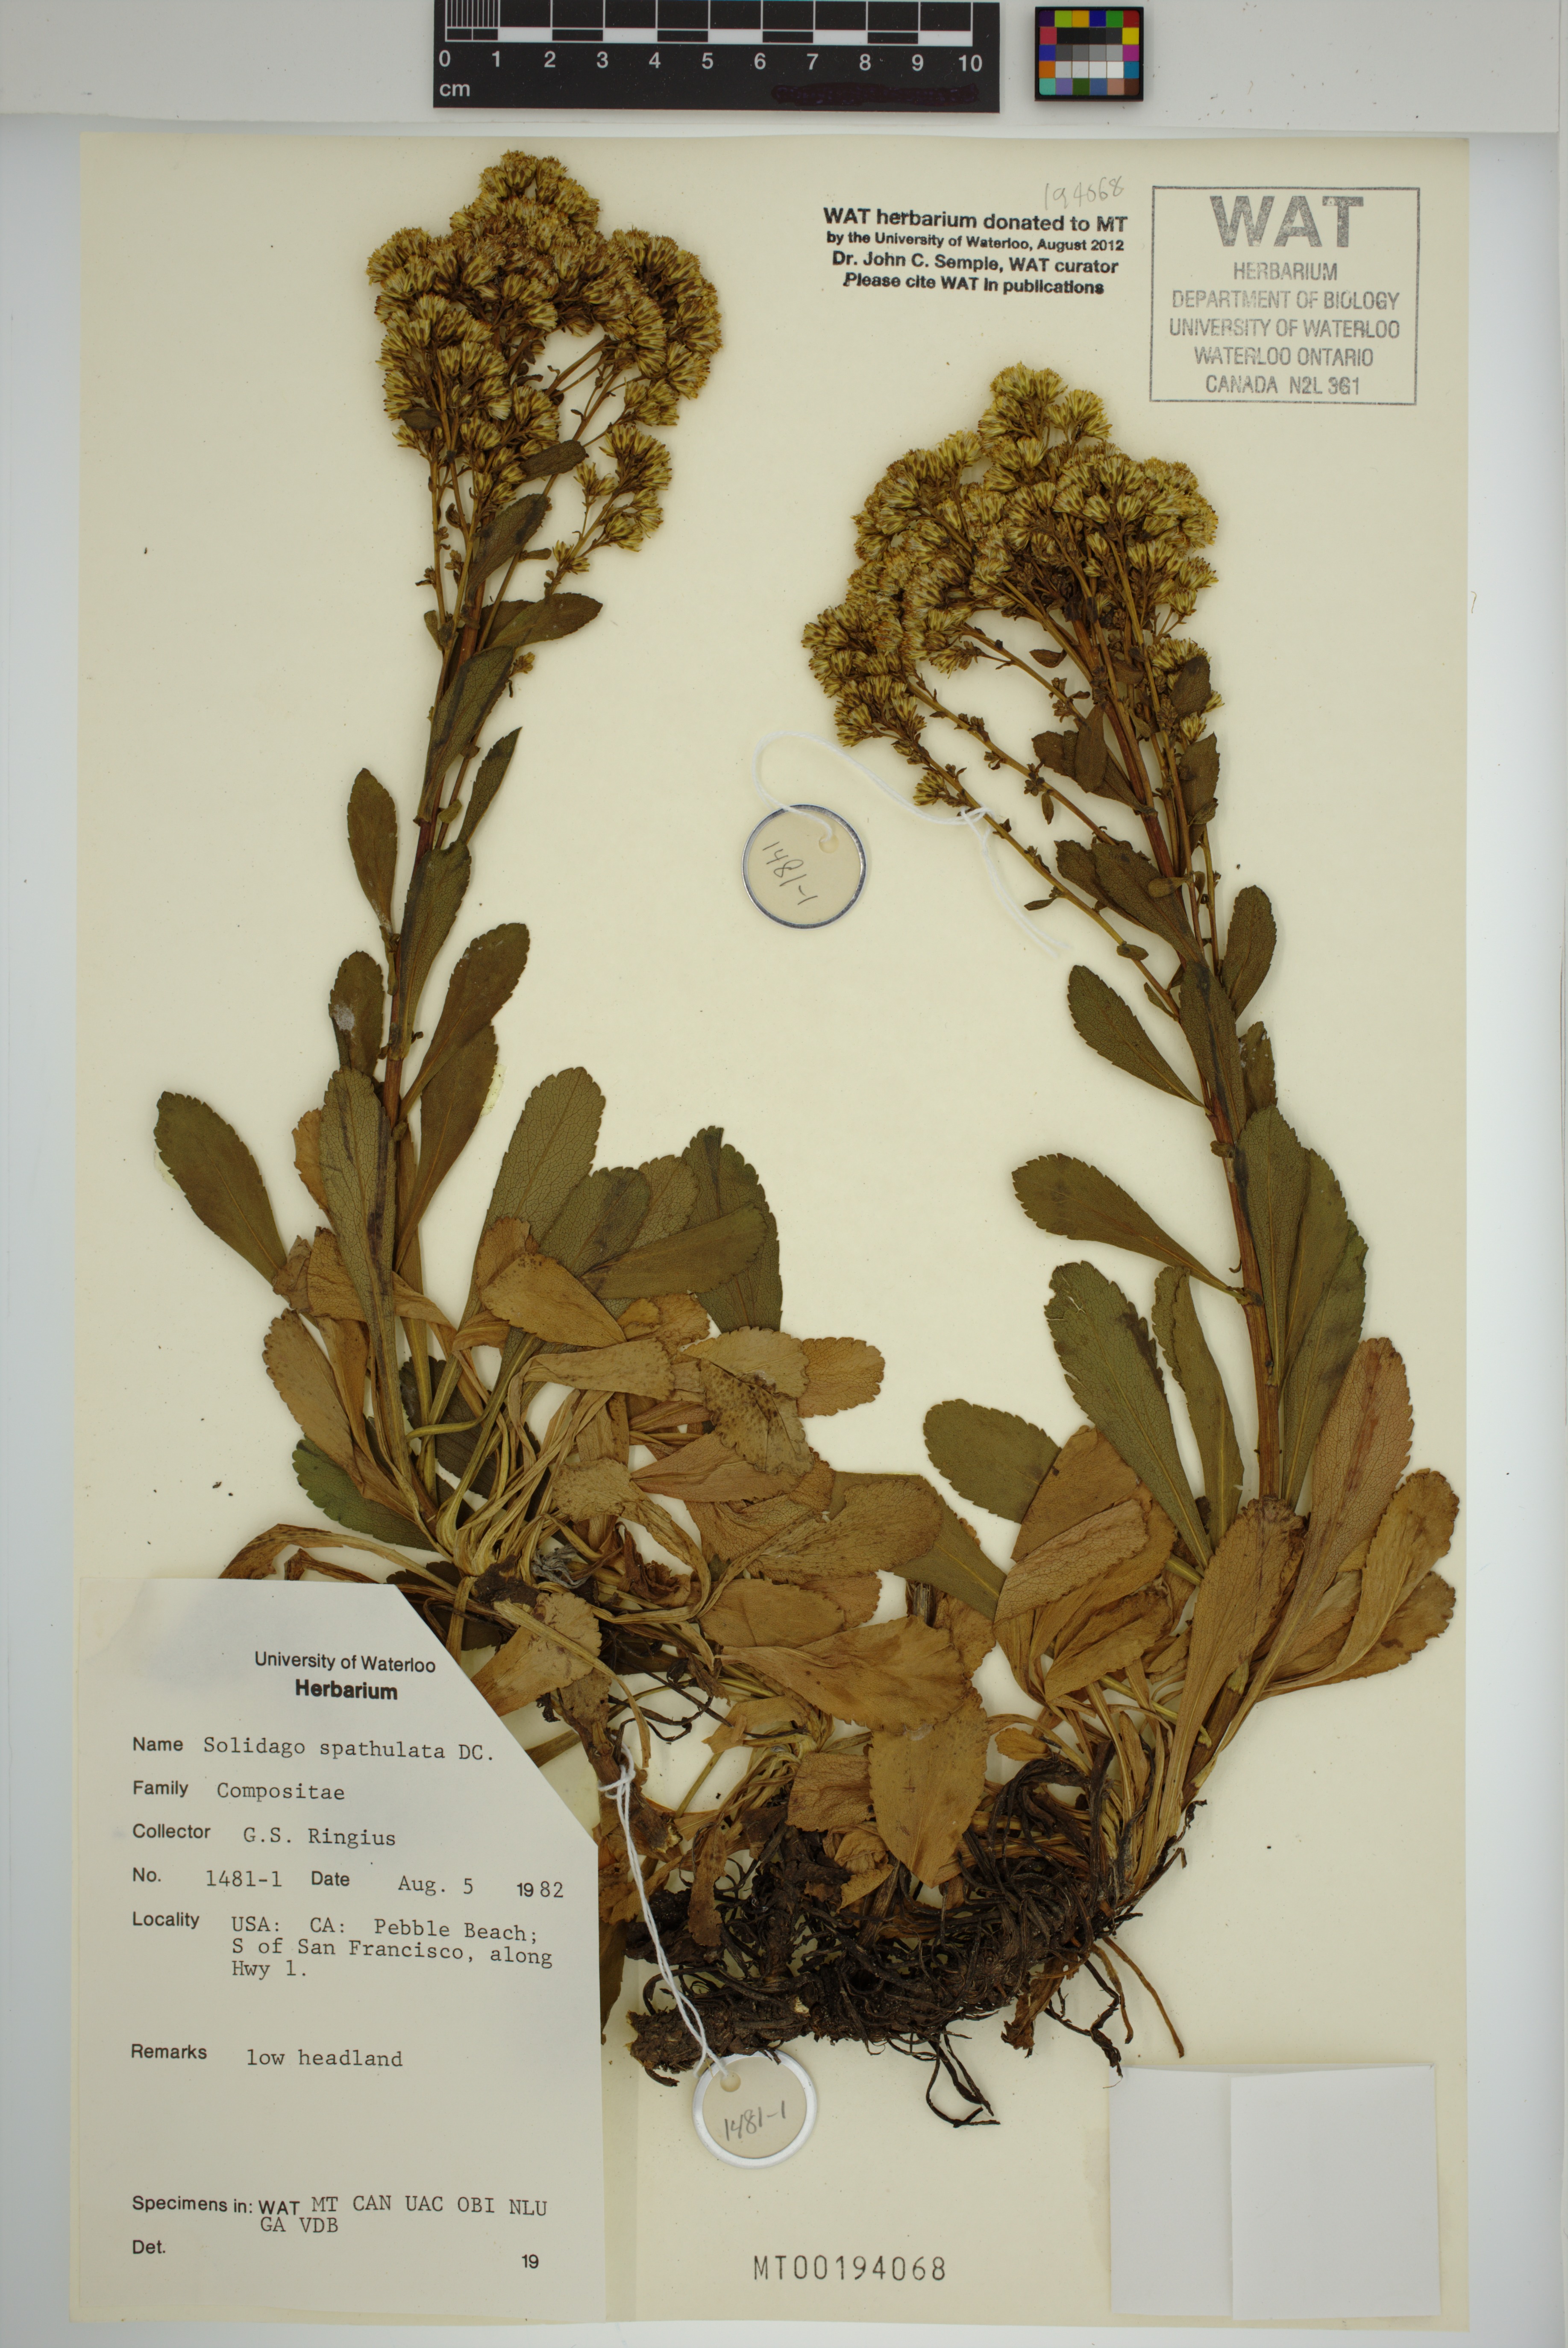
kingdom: Plantae
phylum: Tracheophyta
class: Magnoliopsida
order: Asterales
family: Asteraceae
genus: Solidago
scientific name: Solidago spathulata
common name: Coast goldenrod
